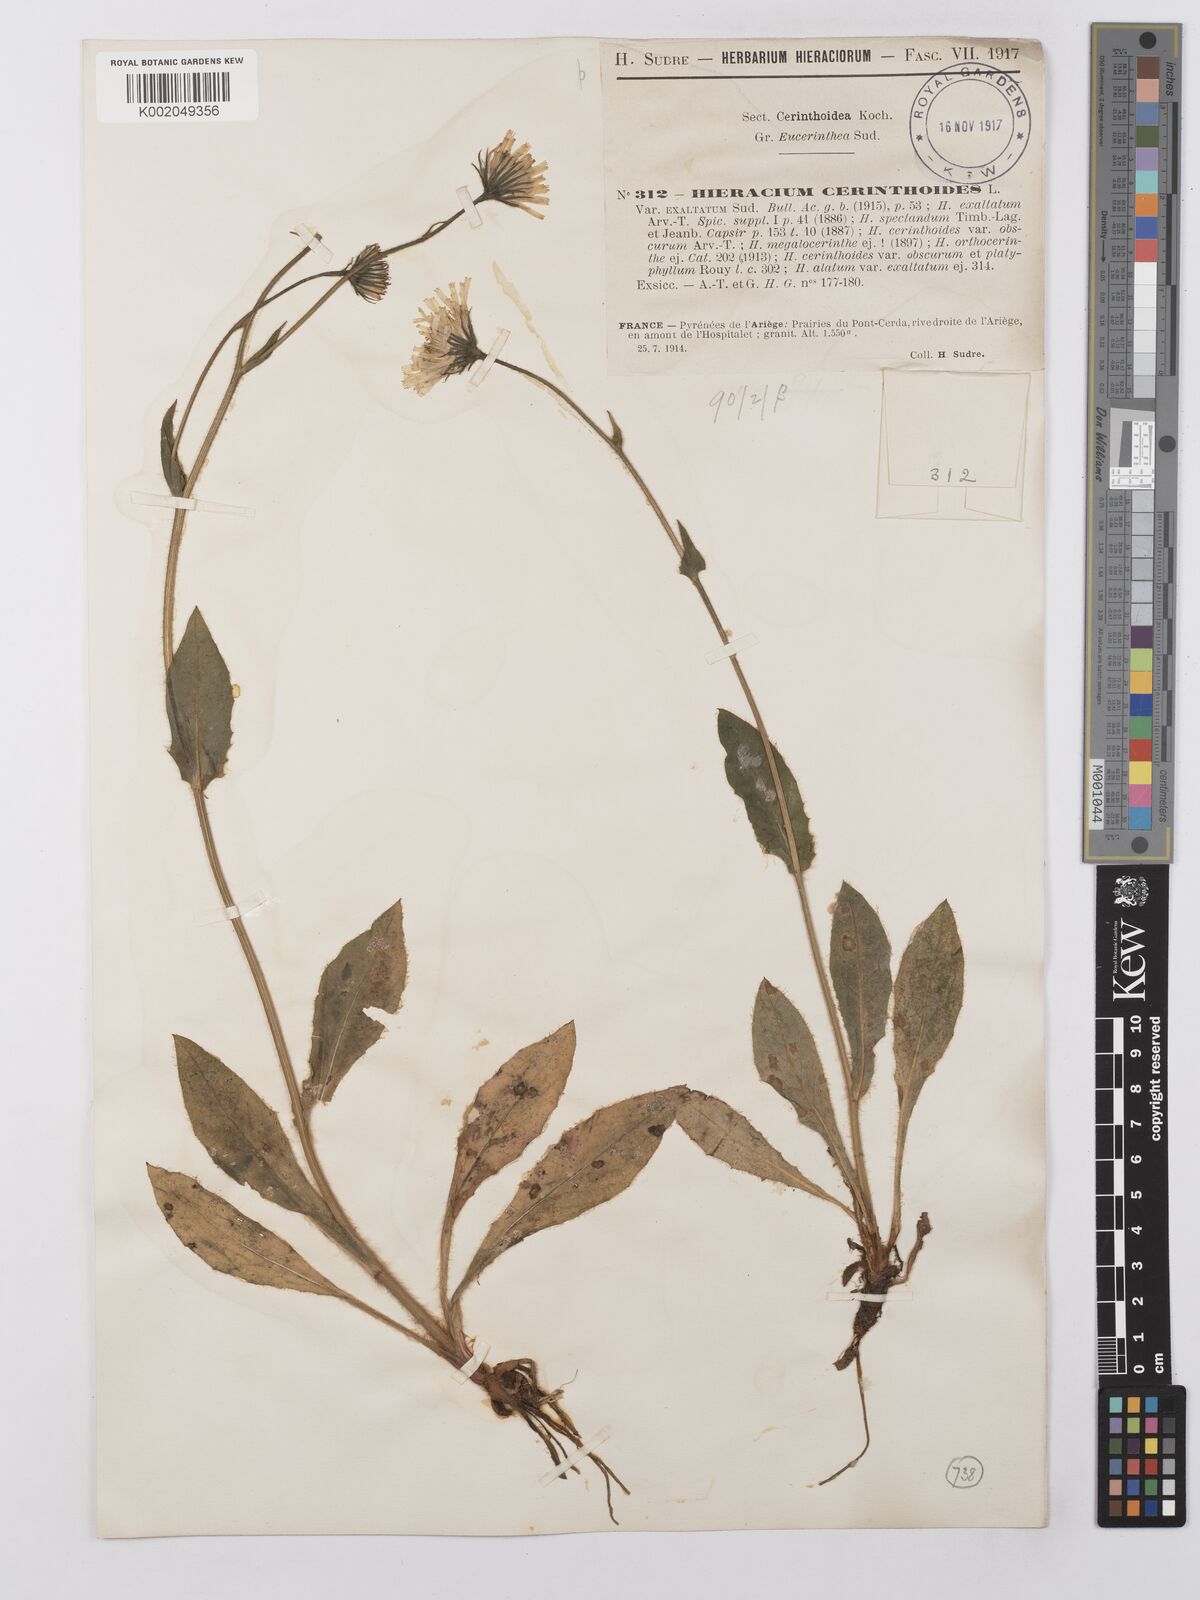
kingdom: Plantae
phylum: Tracheophyta
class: Magnoliopsida
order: Asterales
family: Asteraceae
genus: Hieracium
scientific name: Hieracium cerinthoides
